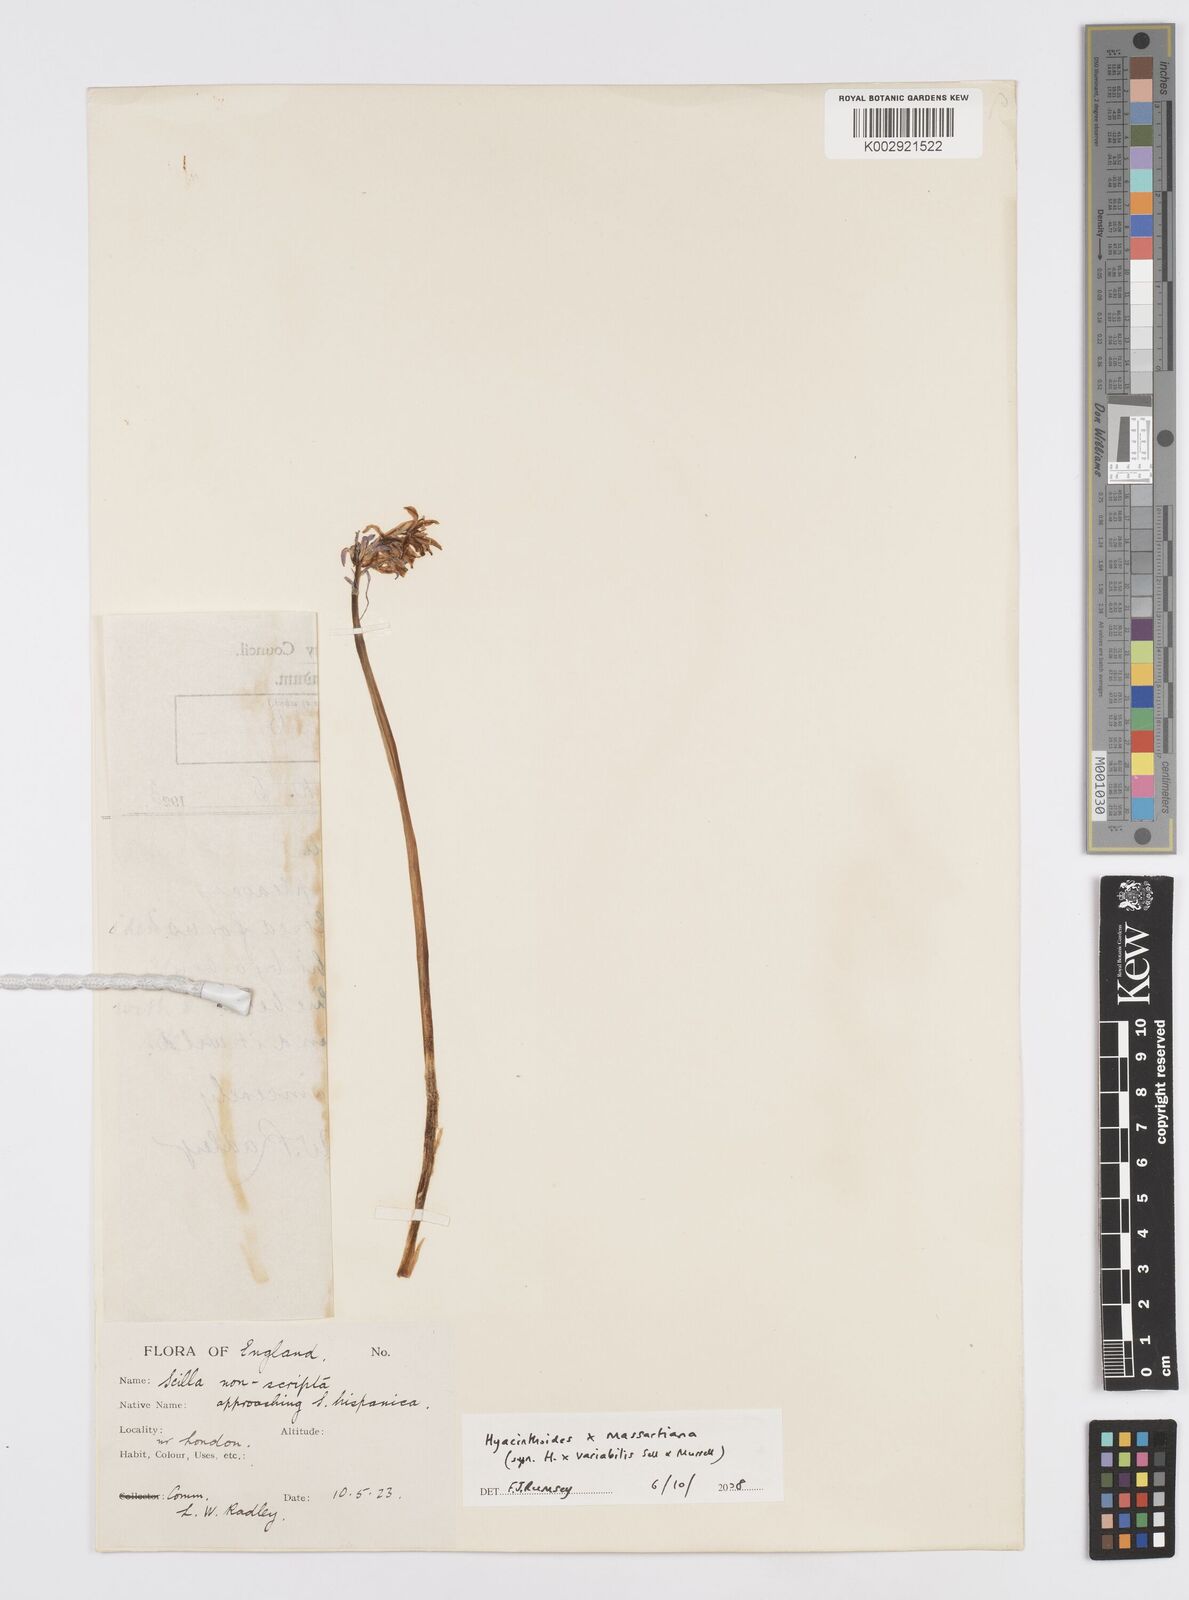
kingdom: Plantae
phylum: Tracheophyta
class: Liliopsida
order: Asparagales
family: Asparagaceae
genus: Hyacinthoides
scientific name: Hyacinthoides massartiana
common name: Hyacinthoides
